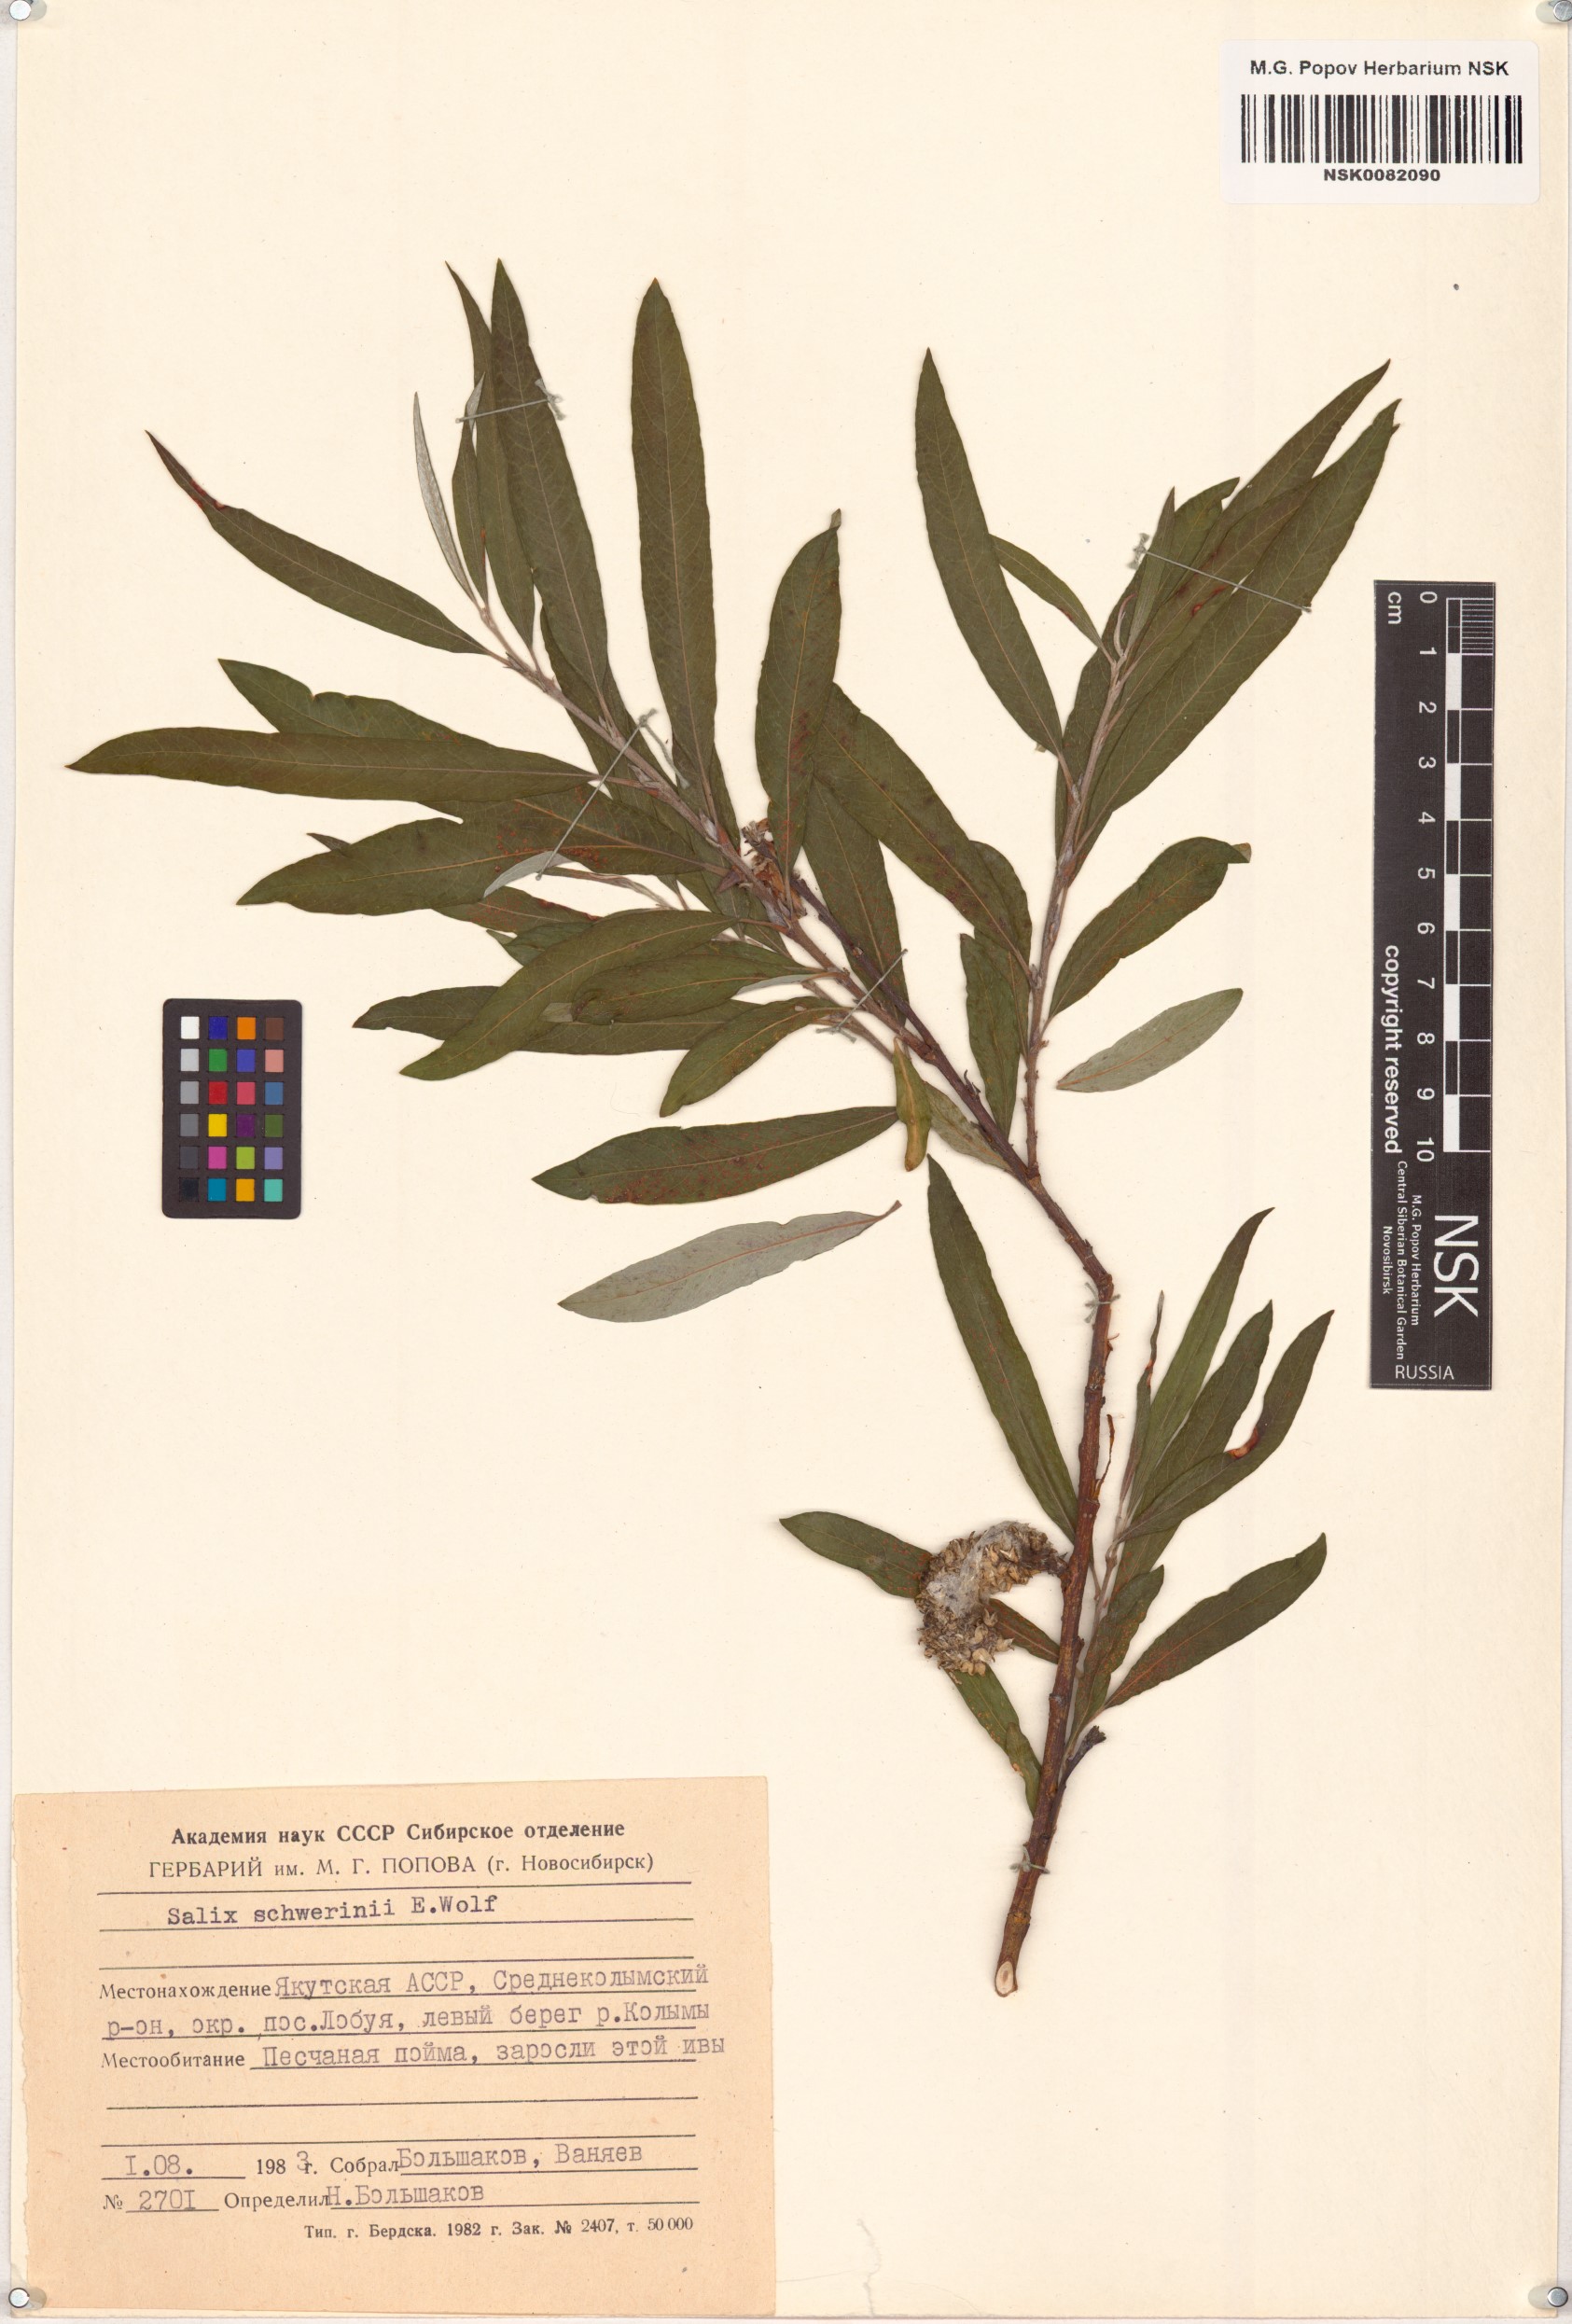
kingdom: Plantae
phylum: Tracheophyta
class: Magnoliopsida
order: Malpighiales
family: Salicaceae
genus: Salix
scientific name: Salix schwerinii
